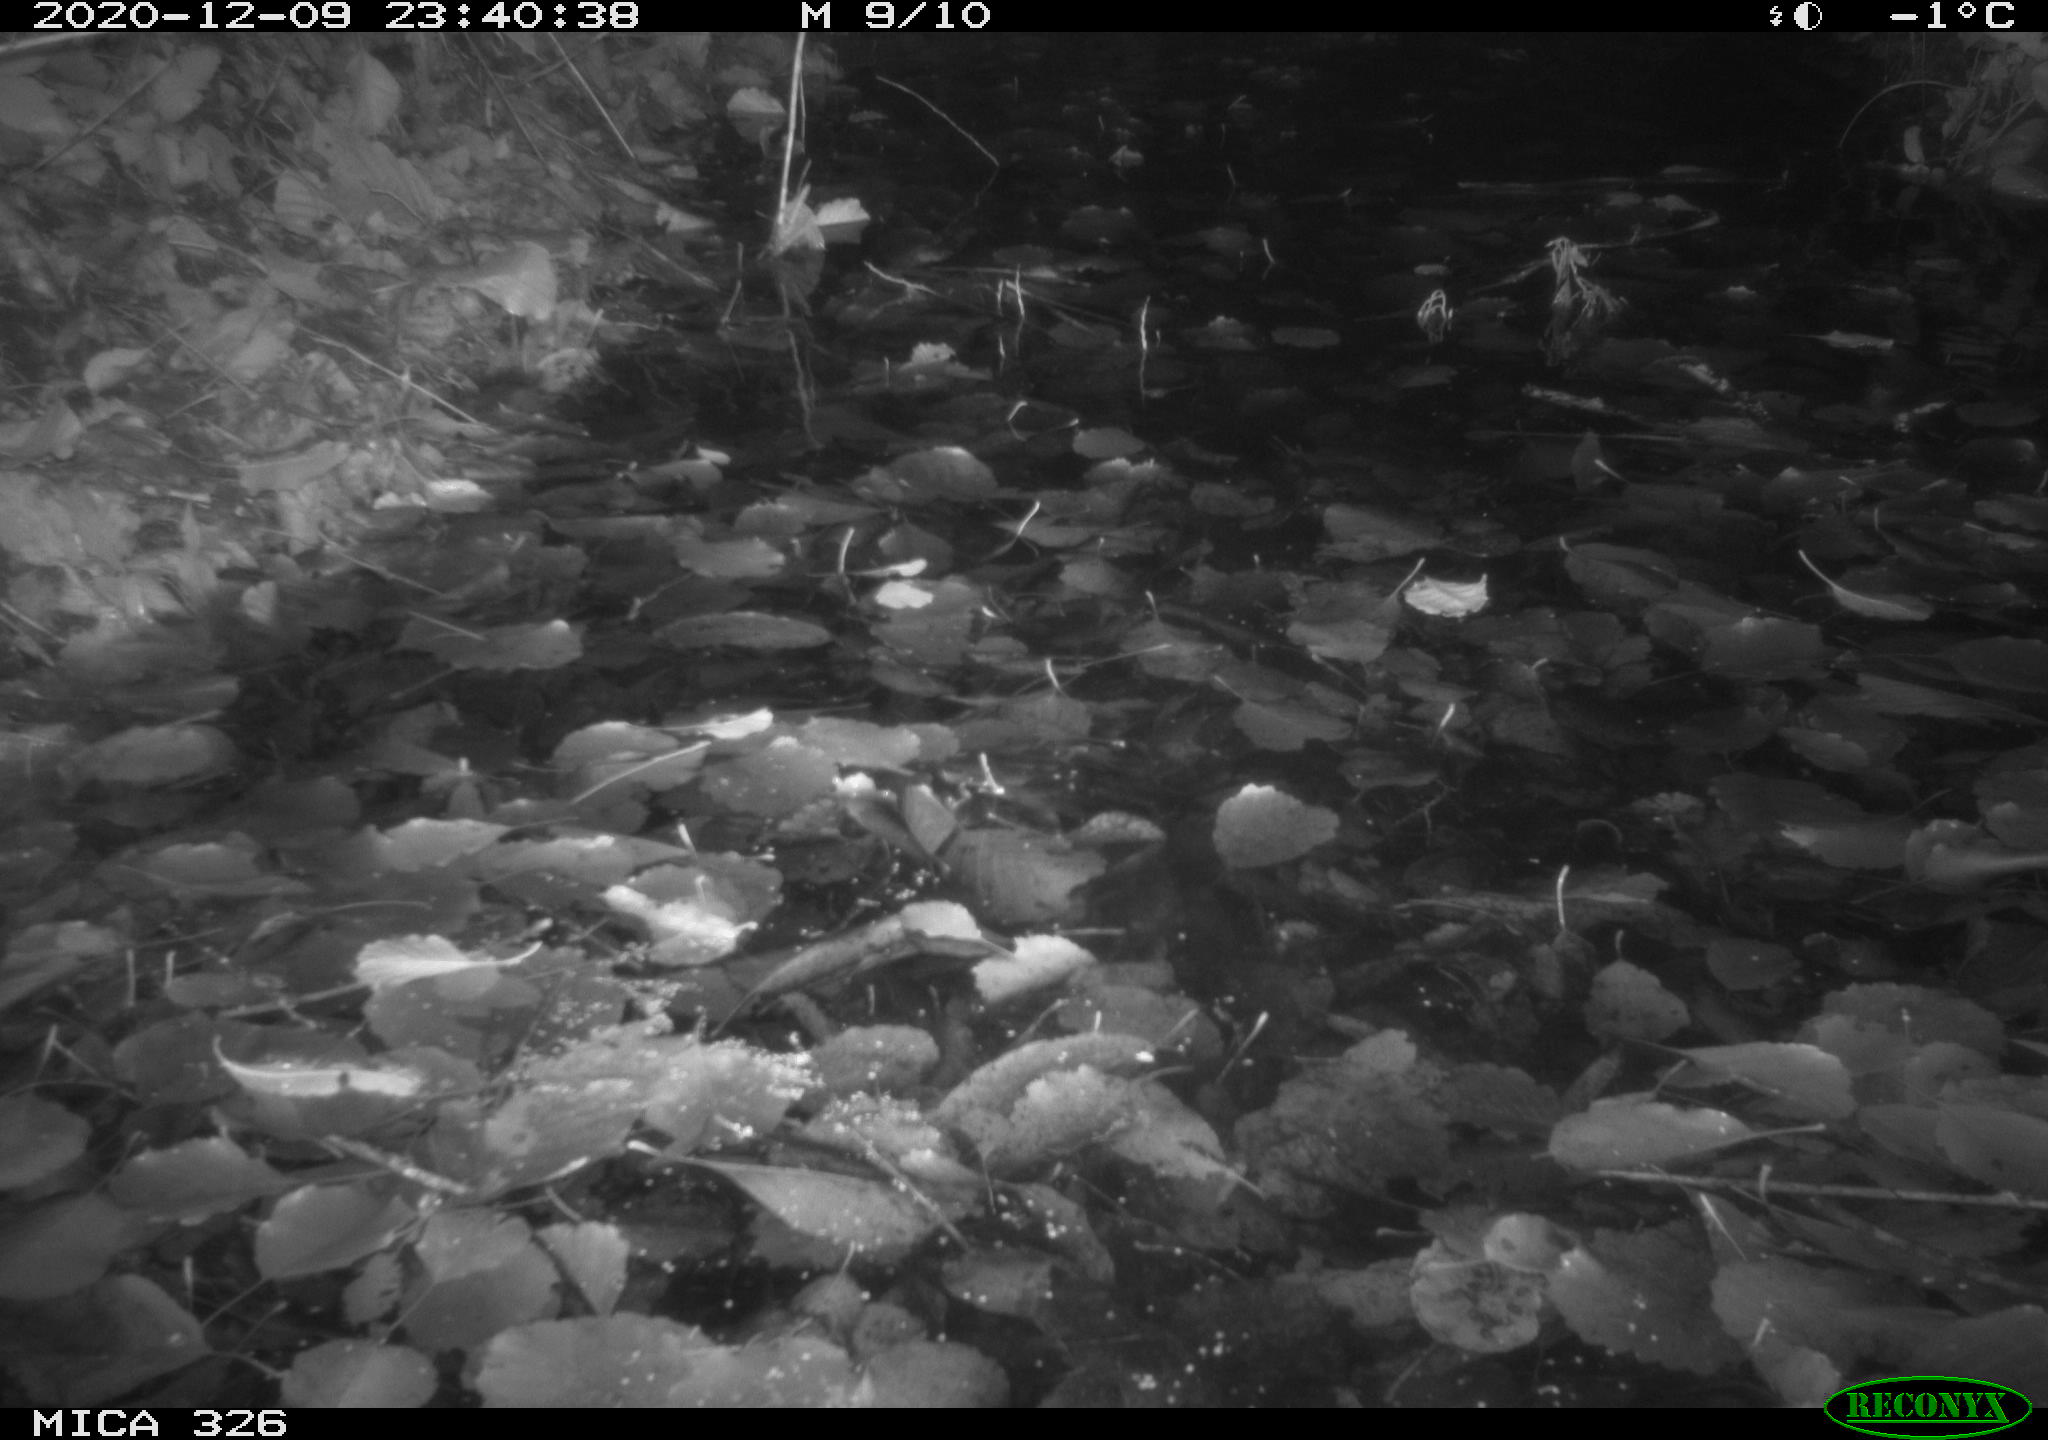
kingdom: Animalia
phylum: Chordata
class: Mammalia
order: Rodentia
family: Myocastoridae
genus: Myocastor
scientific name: Myocastor coypus
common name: Coypu
